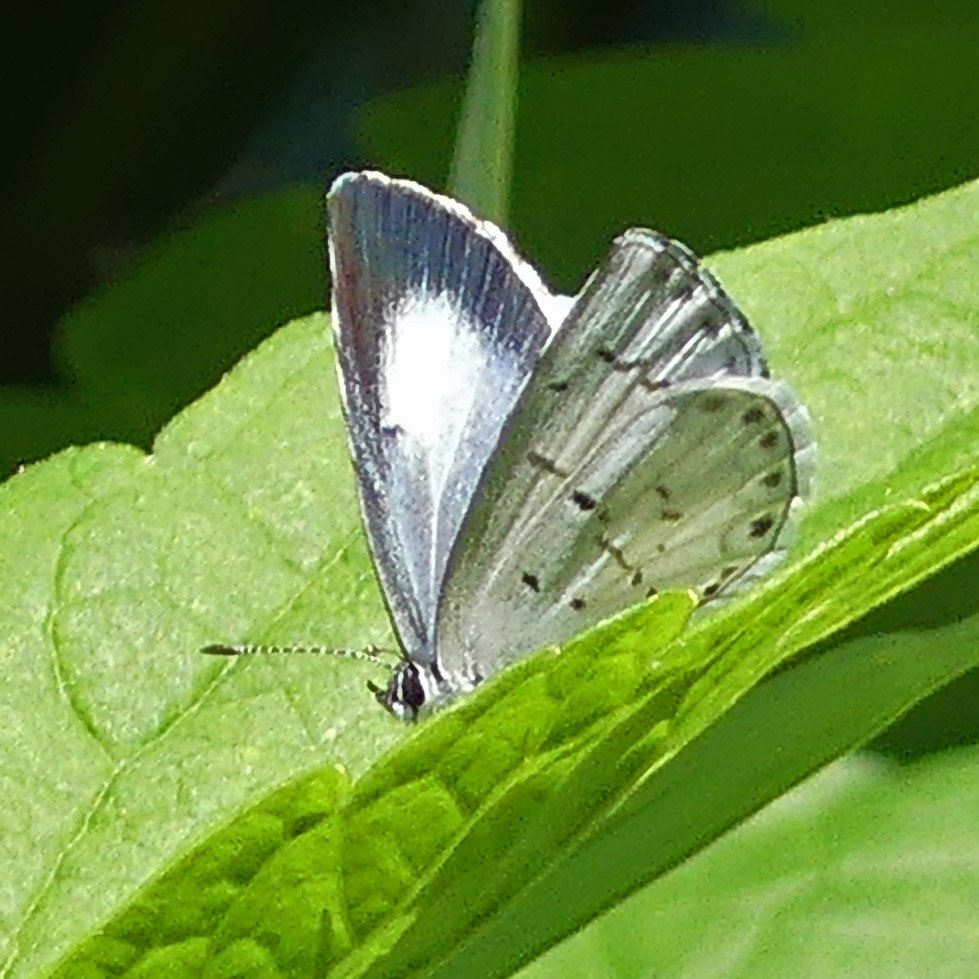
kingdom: Animalia
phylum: Arthropoda
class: Insecta
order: Lepidoptera
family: Lycaenidae
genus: Celastrina
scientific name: Celastrina
